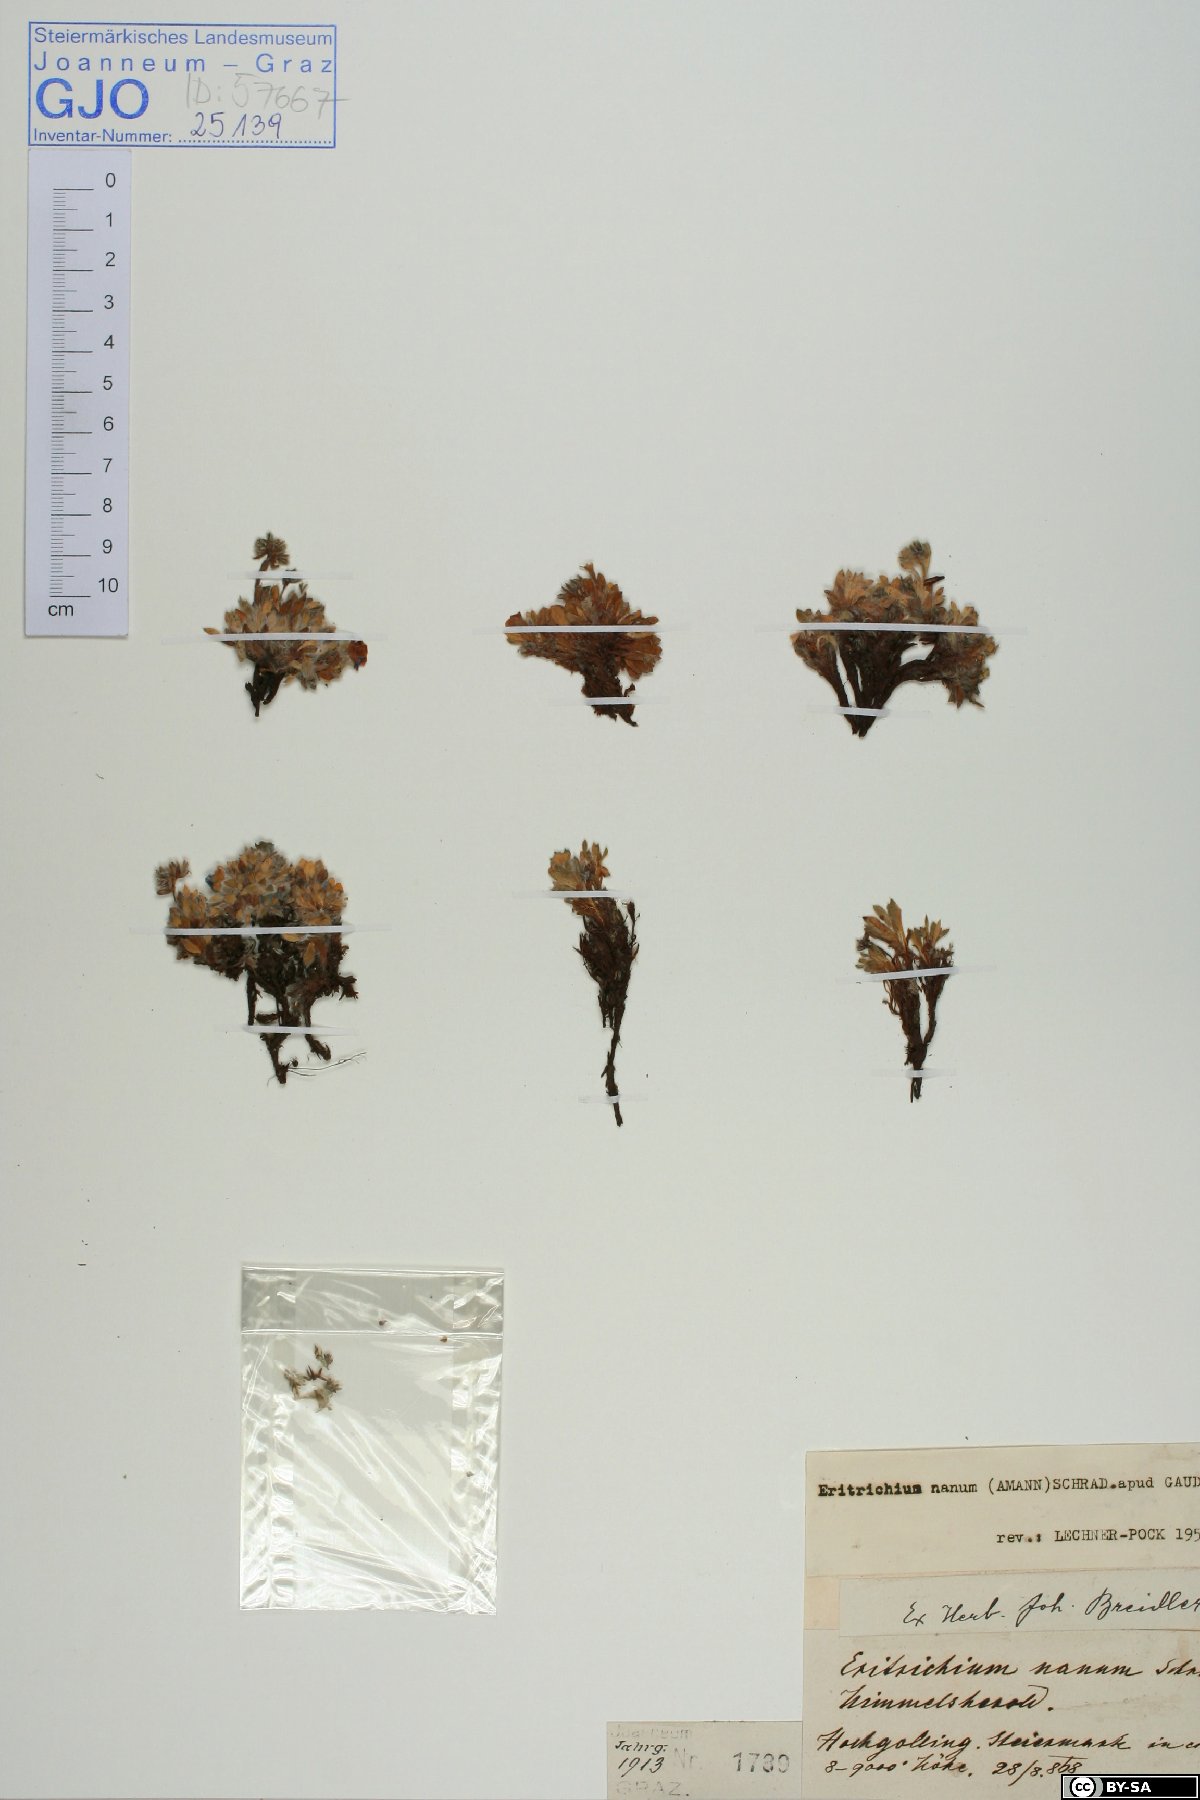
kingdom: Plantae
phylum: Tracheophyta
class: Magnoliopsida
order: Boraginales
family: Boraginaceae
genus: Eritrichium
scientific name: Eritrichium nanum
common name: King-of-the-alps
